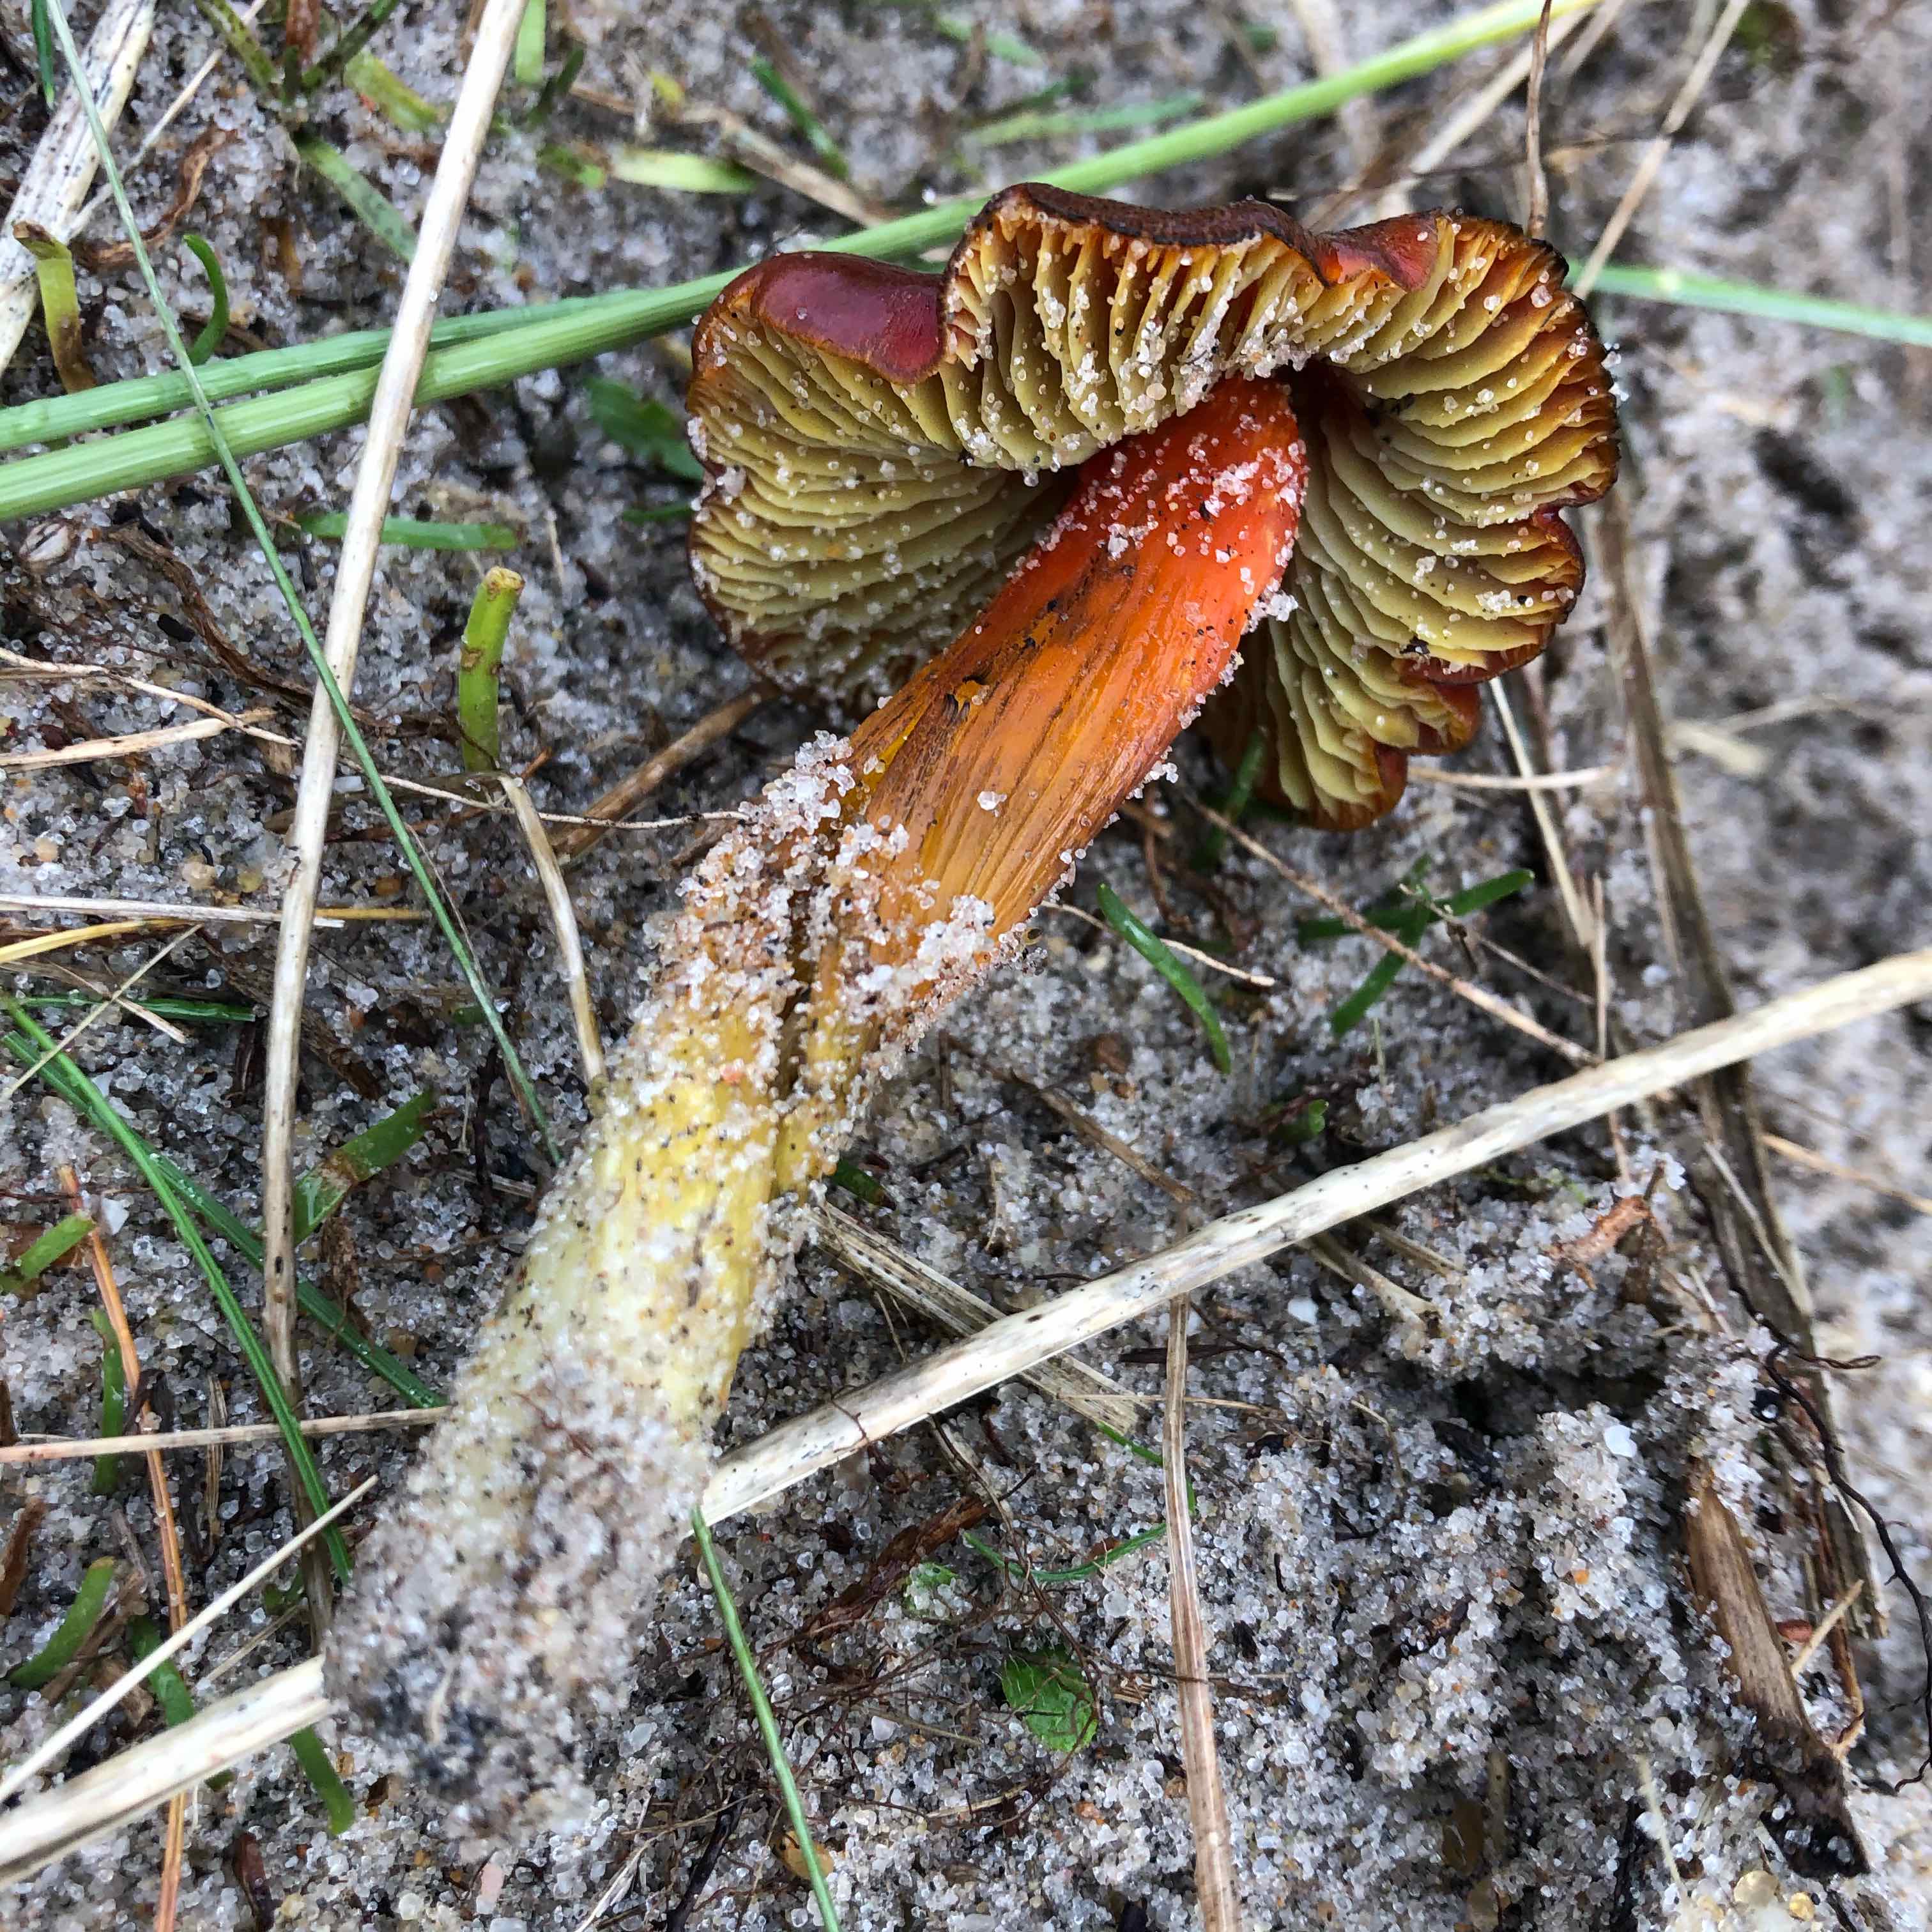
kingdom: Fungi
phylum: Basidiomycota
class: Agaricomycetes
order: Agaricales
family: Hygrophoraceae
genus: Hygrocybe
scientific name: Hygrocybe conicoides
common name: klit-vokshat
